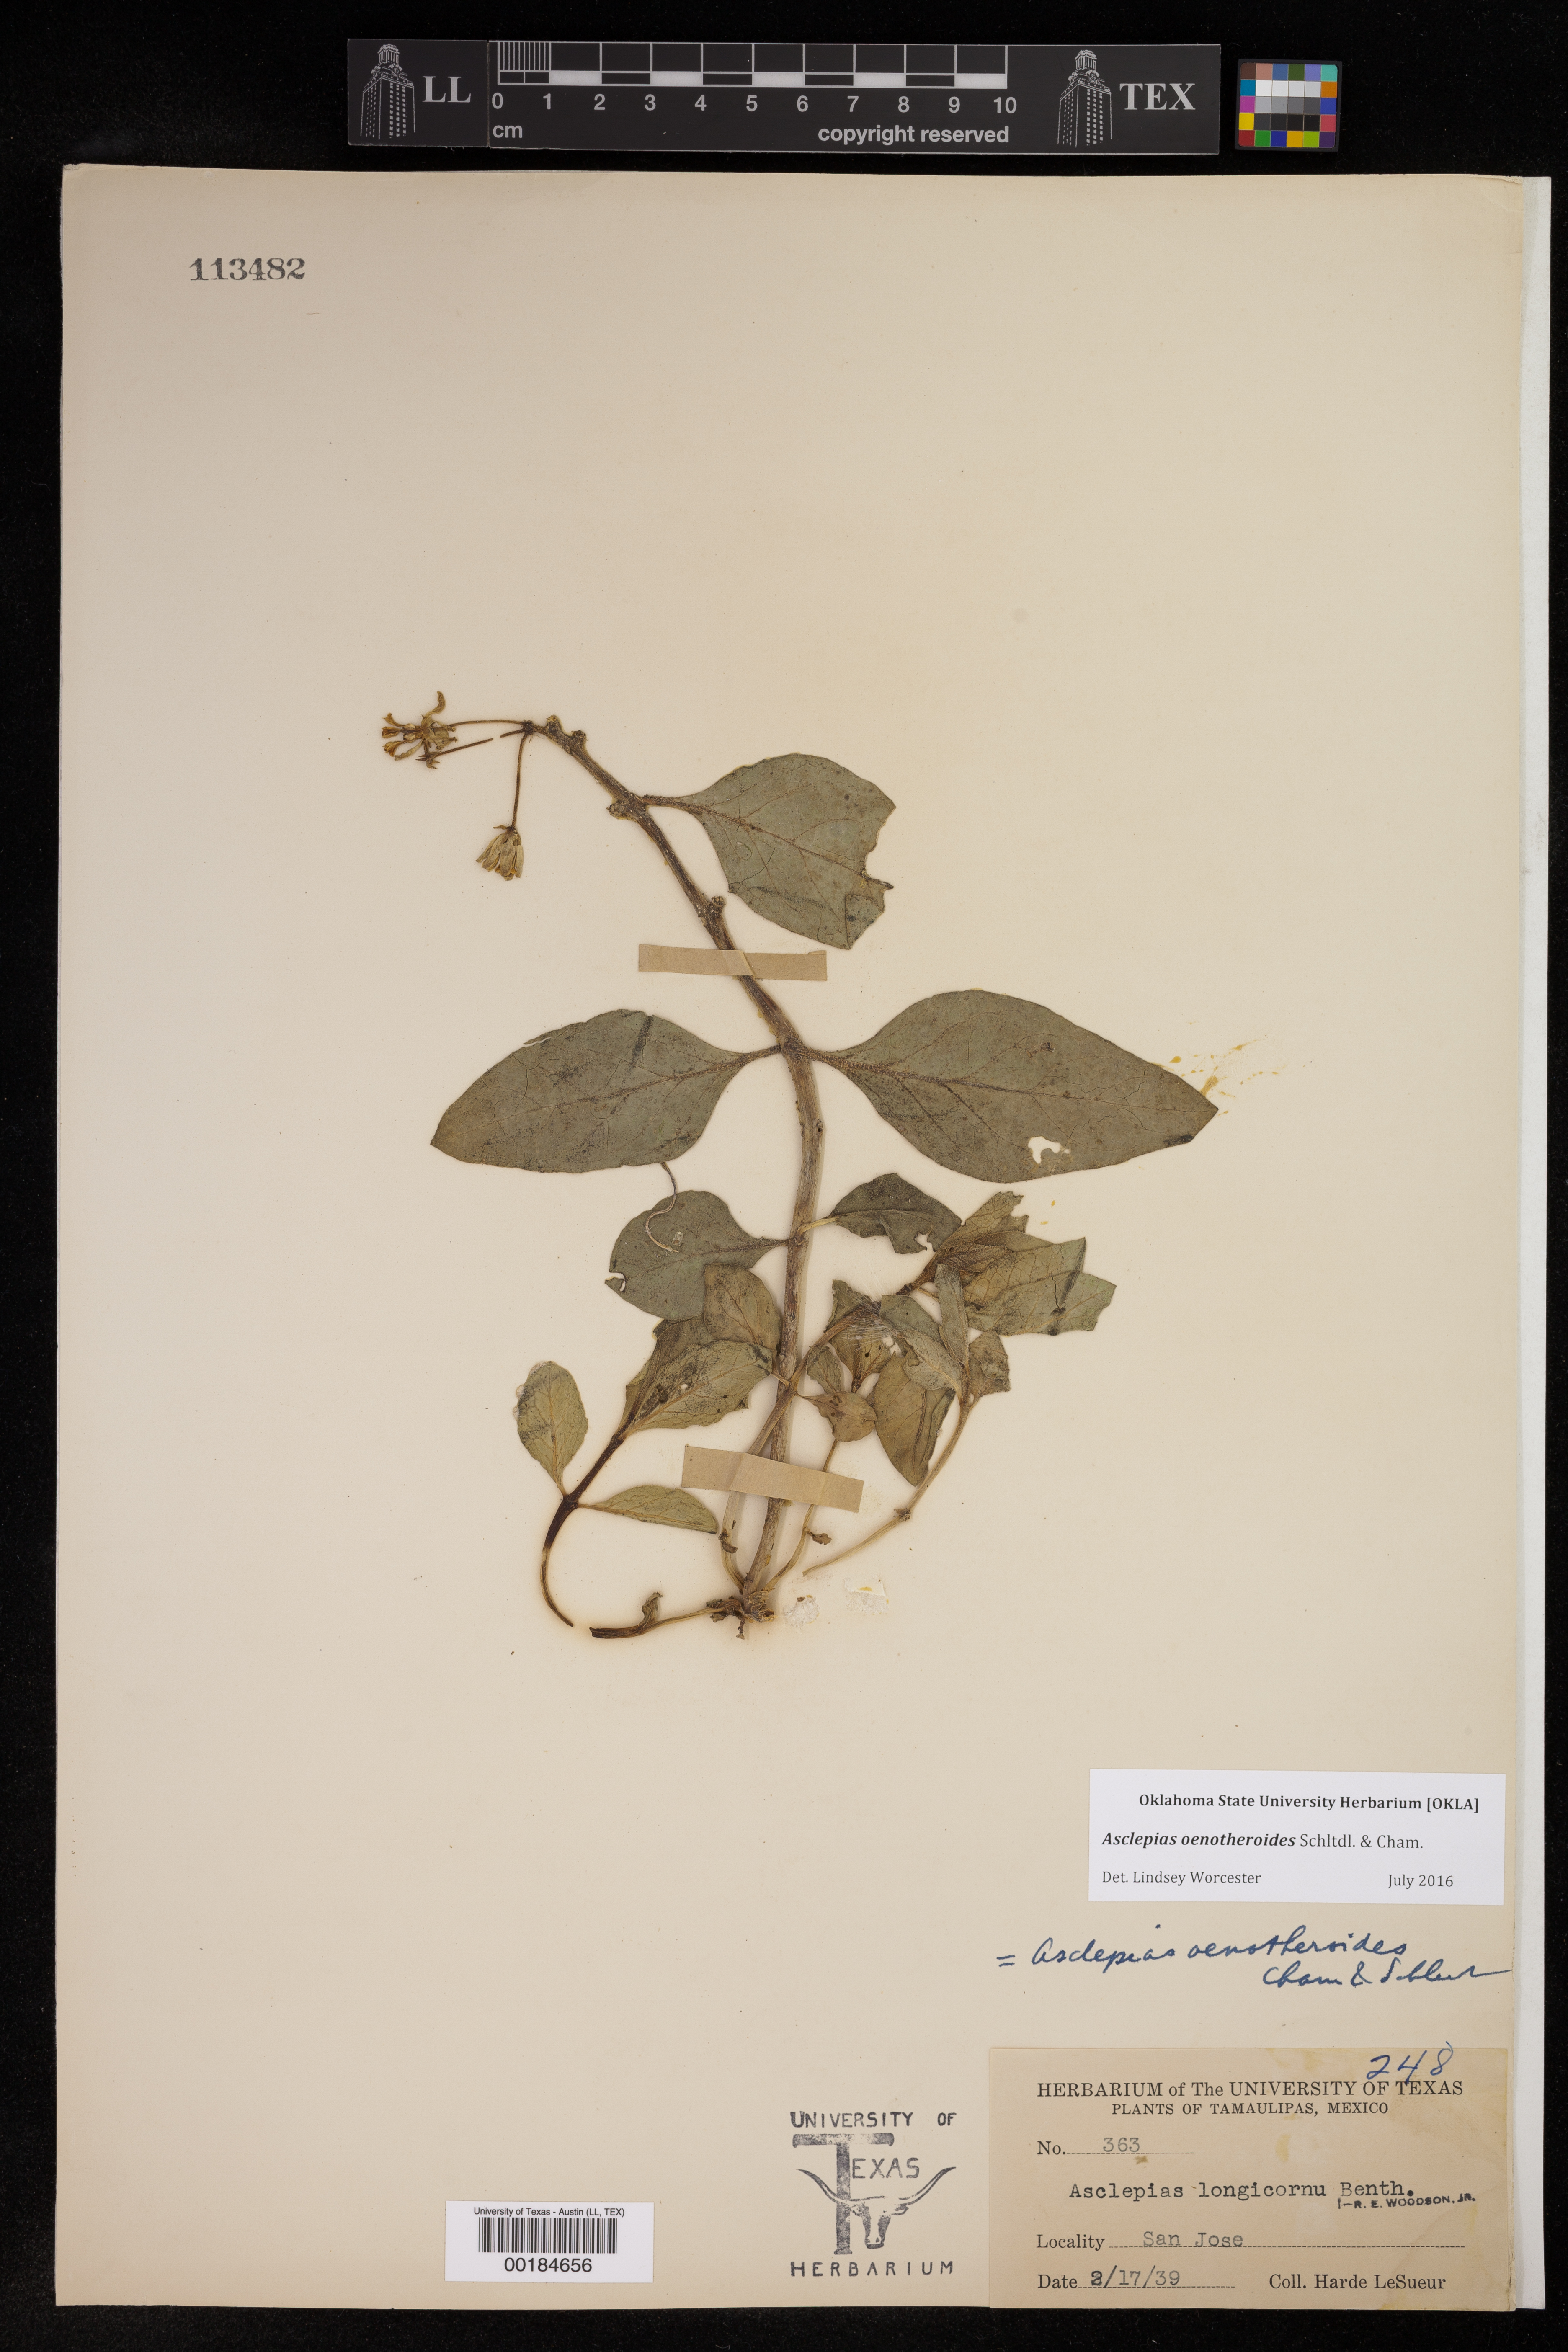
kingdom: Plantae
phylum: Tracheophyta
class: Magnoliopsida
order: Gentianales
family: Apocynaceae
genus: Asclepias
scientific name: Asclepias oenotheroides
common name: Zizotes milkweed
